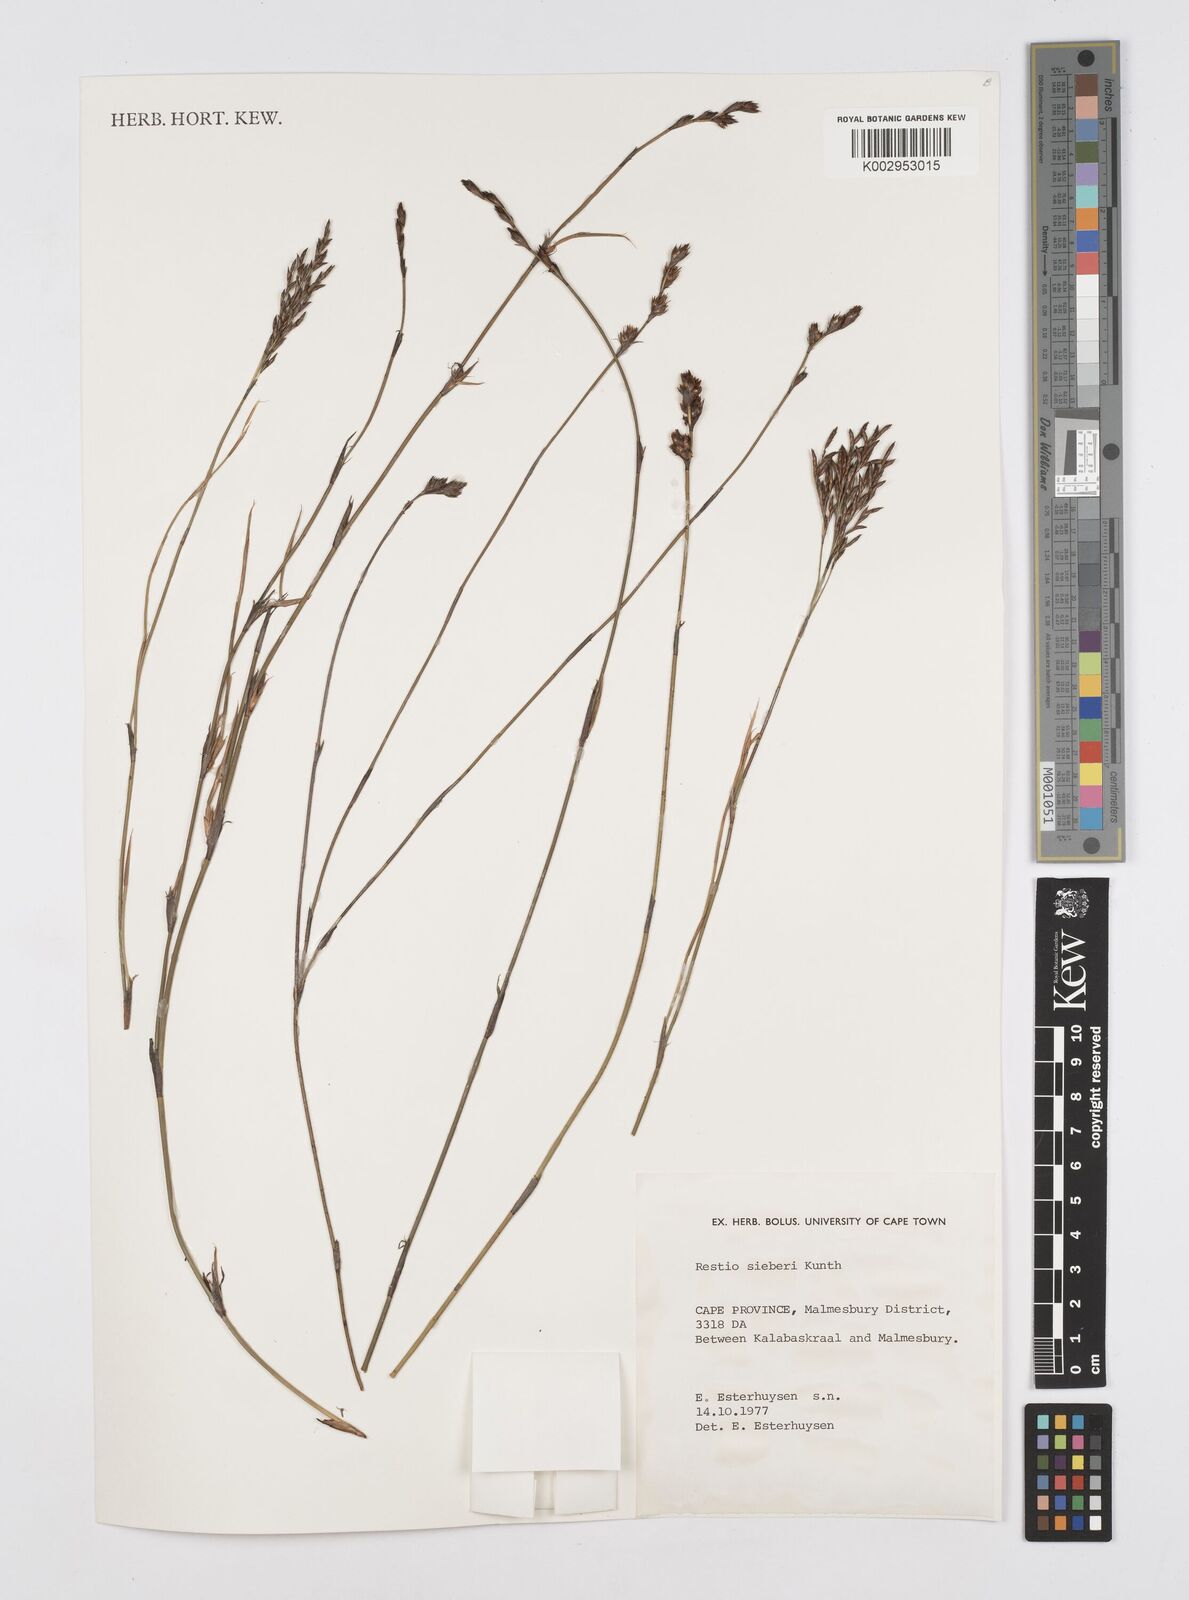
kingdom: Plantae
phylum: Tracheophyta
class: Liliopsida
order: Poales
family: Restionaceae
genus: Restio
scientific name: Restio sieberi
